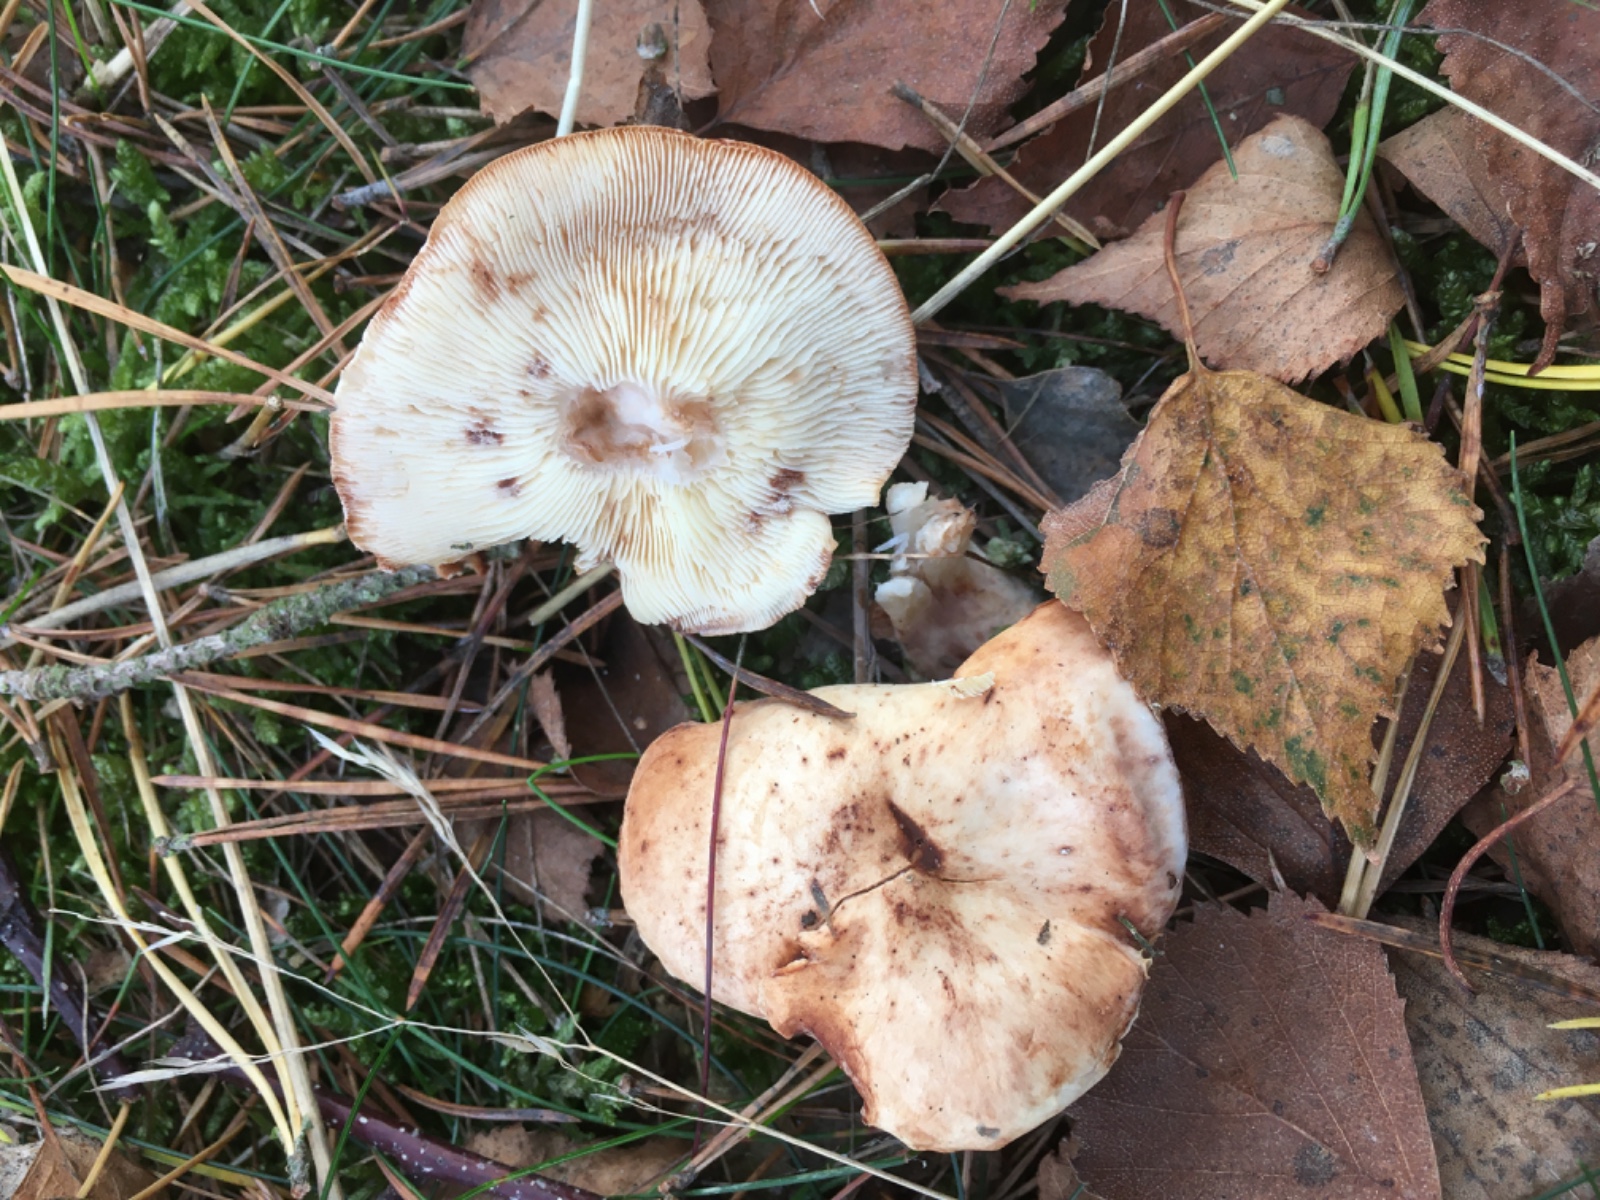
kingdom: Fungi
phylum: Basidiomycota
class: Agaricomycetes
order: Agaricales
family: Omphalotaceae
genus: Rhodocollybia
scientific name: Rhodocollybia maculata
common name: plettet fladhat
